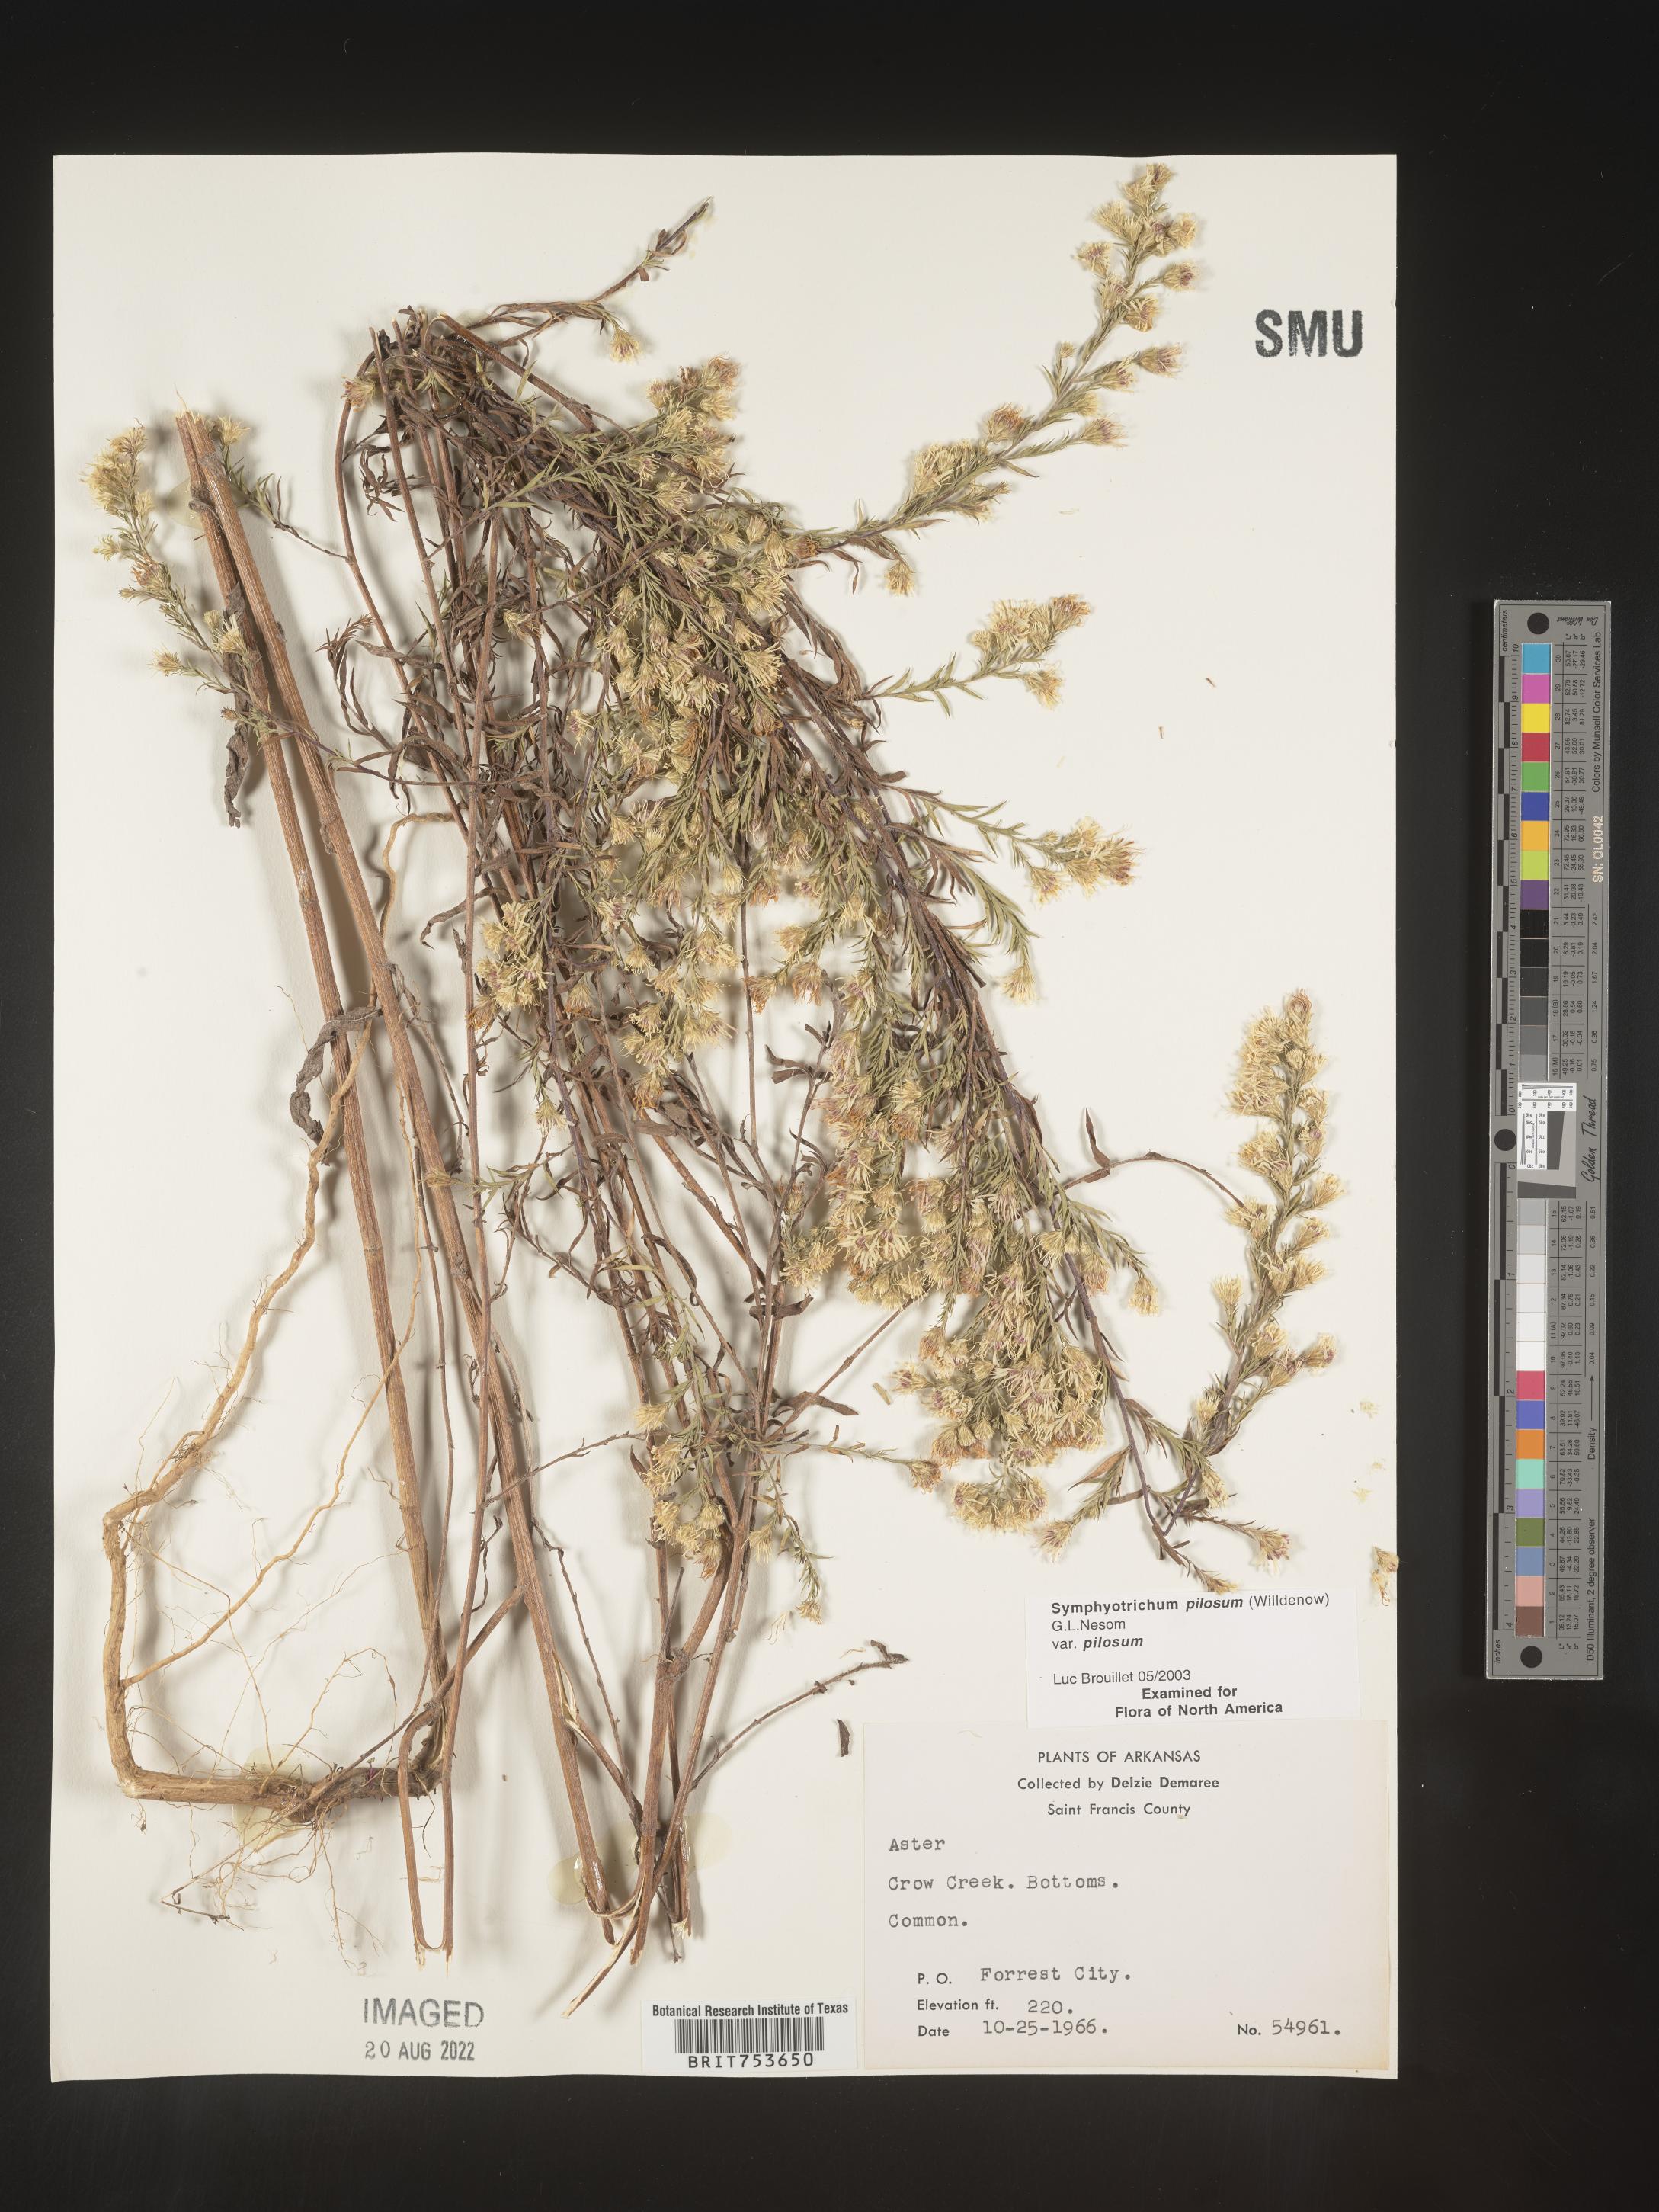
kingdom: Plantae
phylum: Tracheophyta
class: Magnoliopsida
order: Asterales
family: Asteraceae
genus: Symphyotrichum
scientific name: Symphyotrichum pilosum
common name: Awl aster
